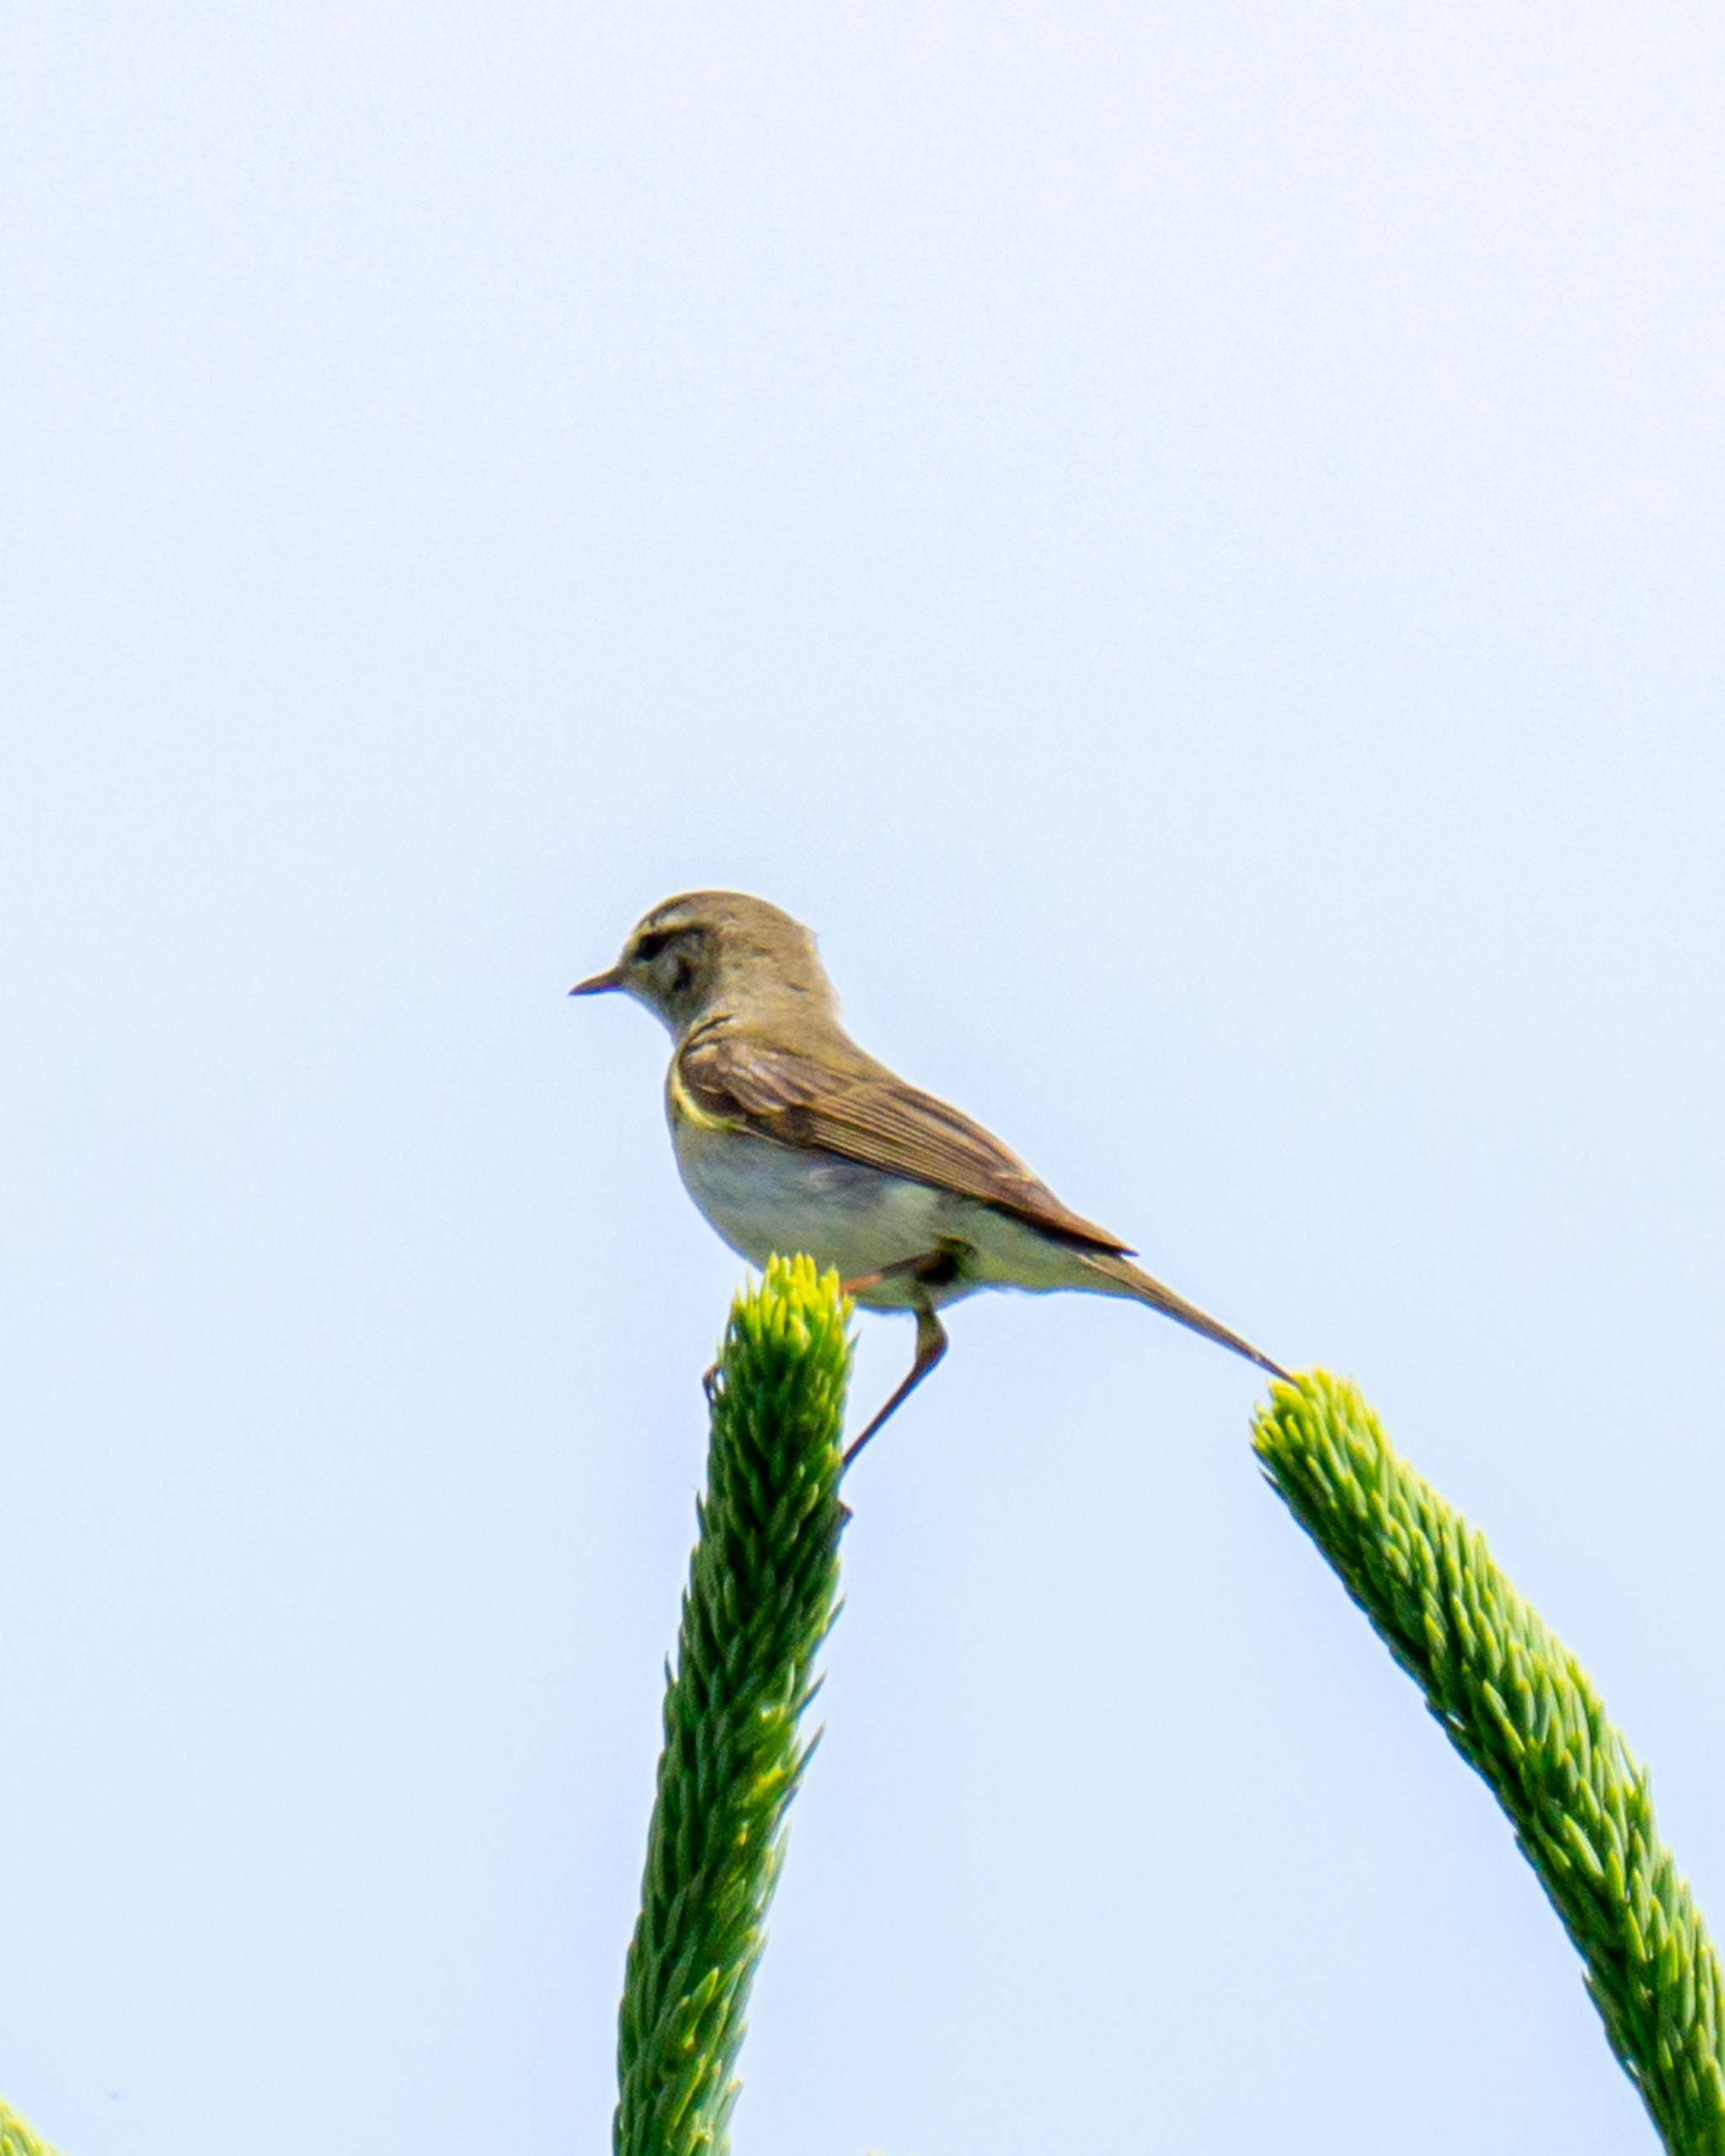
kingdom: Animalia
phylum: Chordata
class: Aves
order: Passeriformes
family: Phylloscopidae
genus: Phylloscopus
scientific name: Phylloscopus trochilus
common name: Løvsanger
